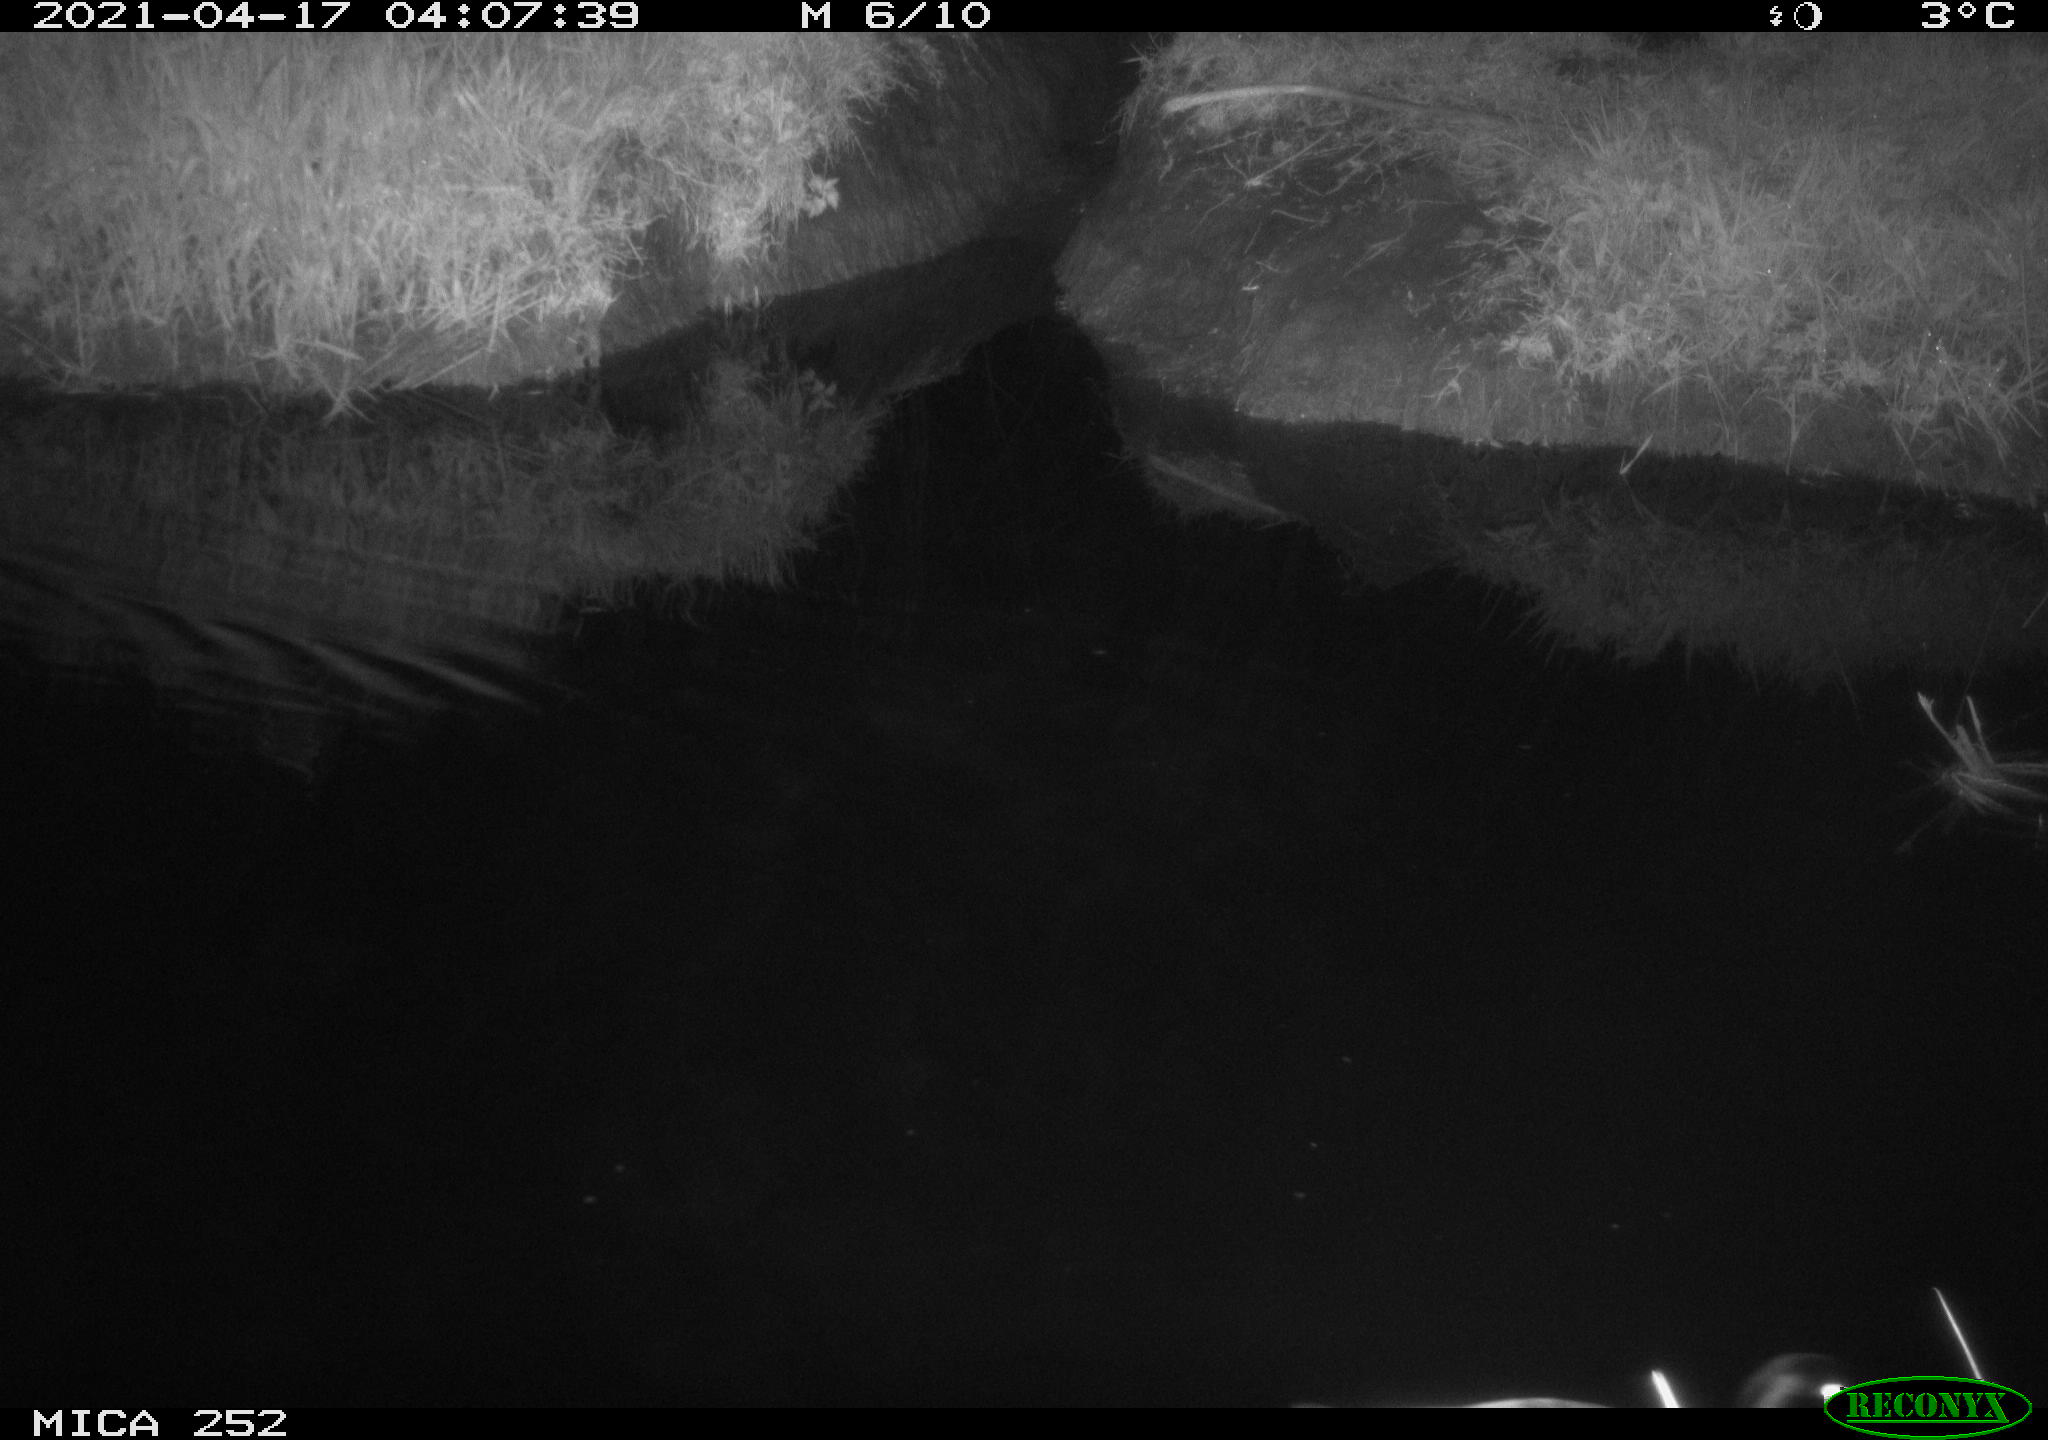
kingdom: Animalia
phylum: Chordata
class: Aves
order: Anseriformes
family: Anatidae
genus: Anas
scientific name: Anas platyrhynchos
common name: Mallard
